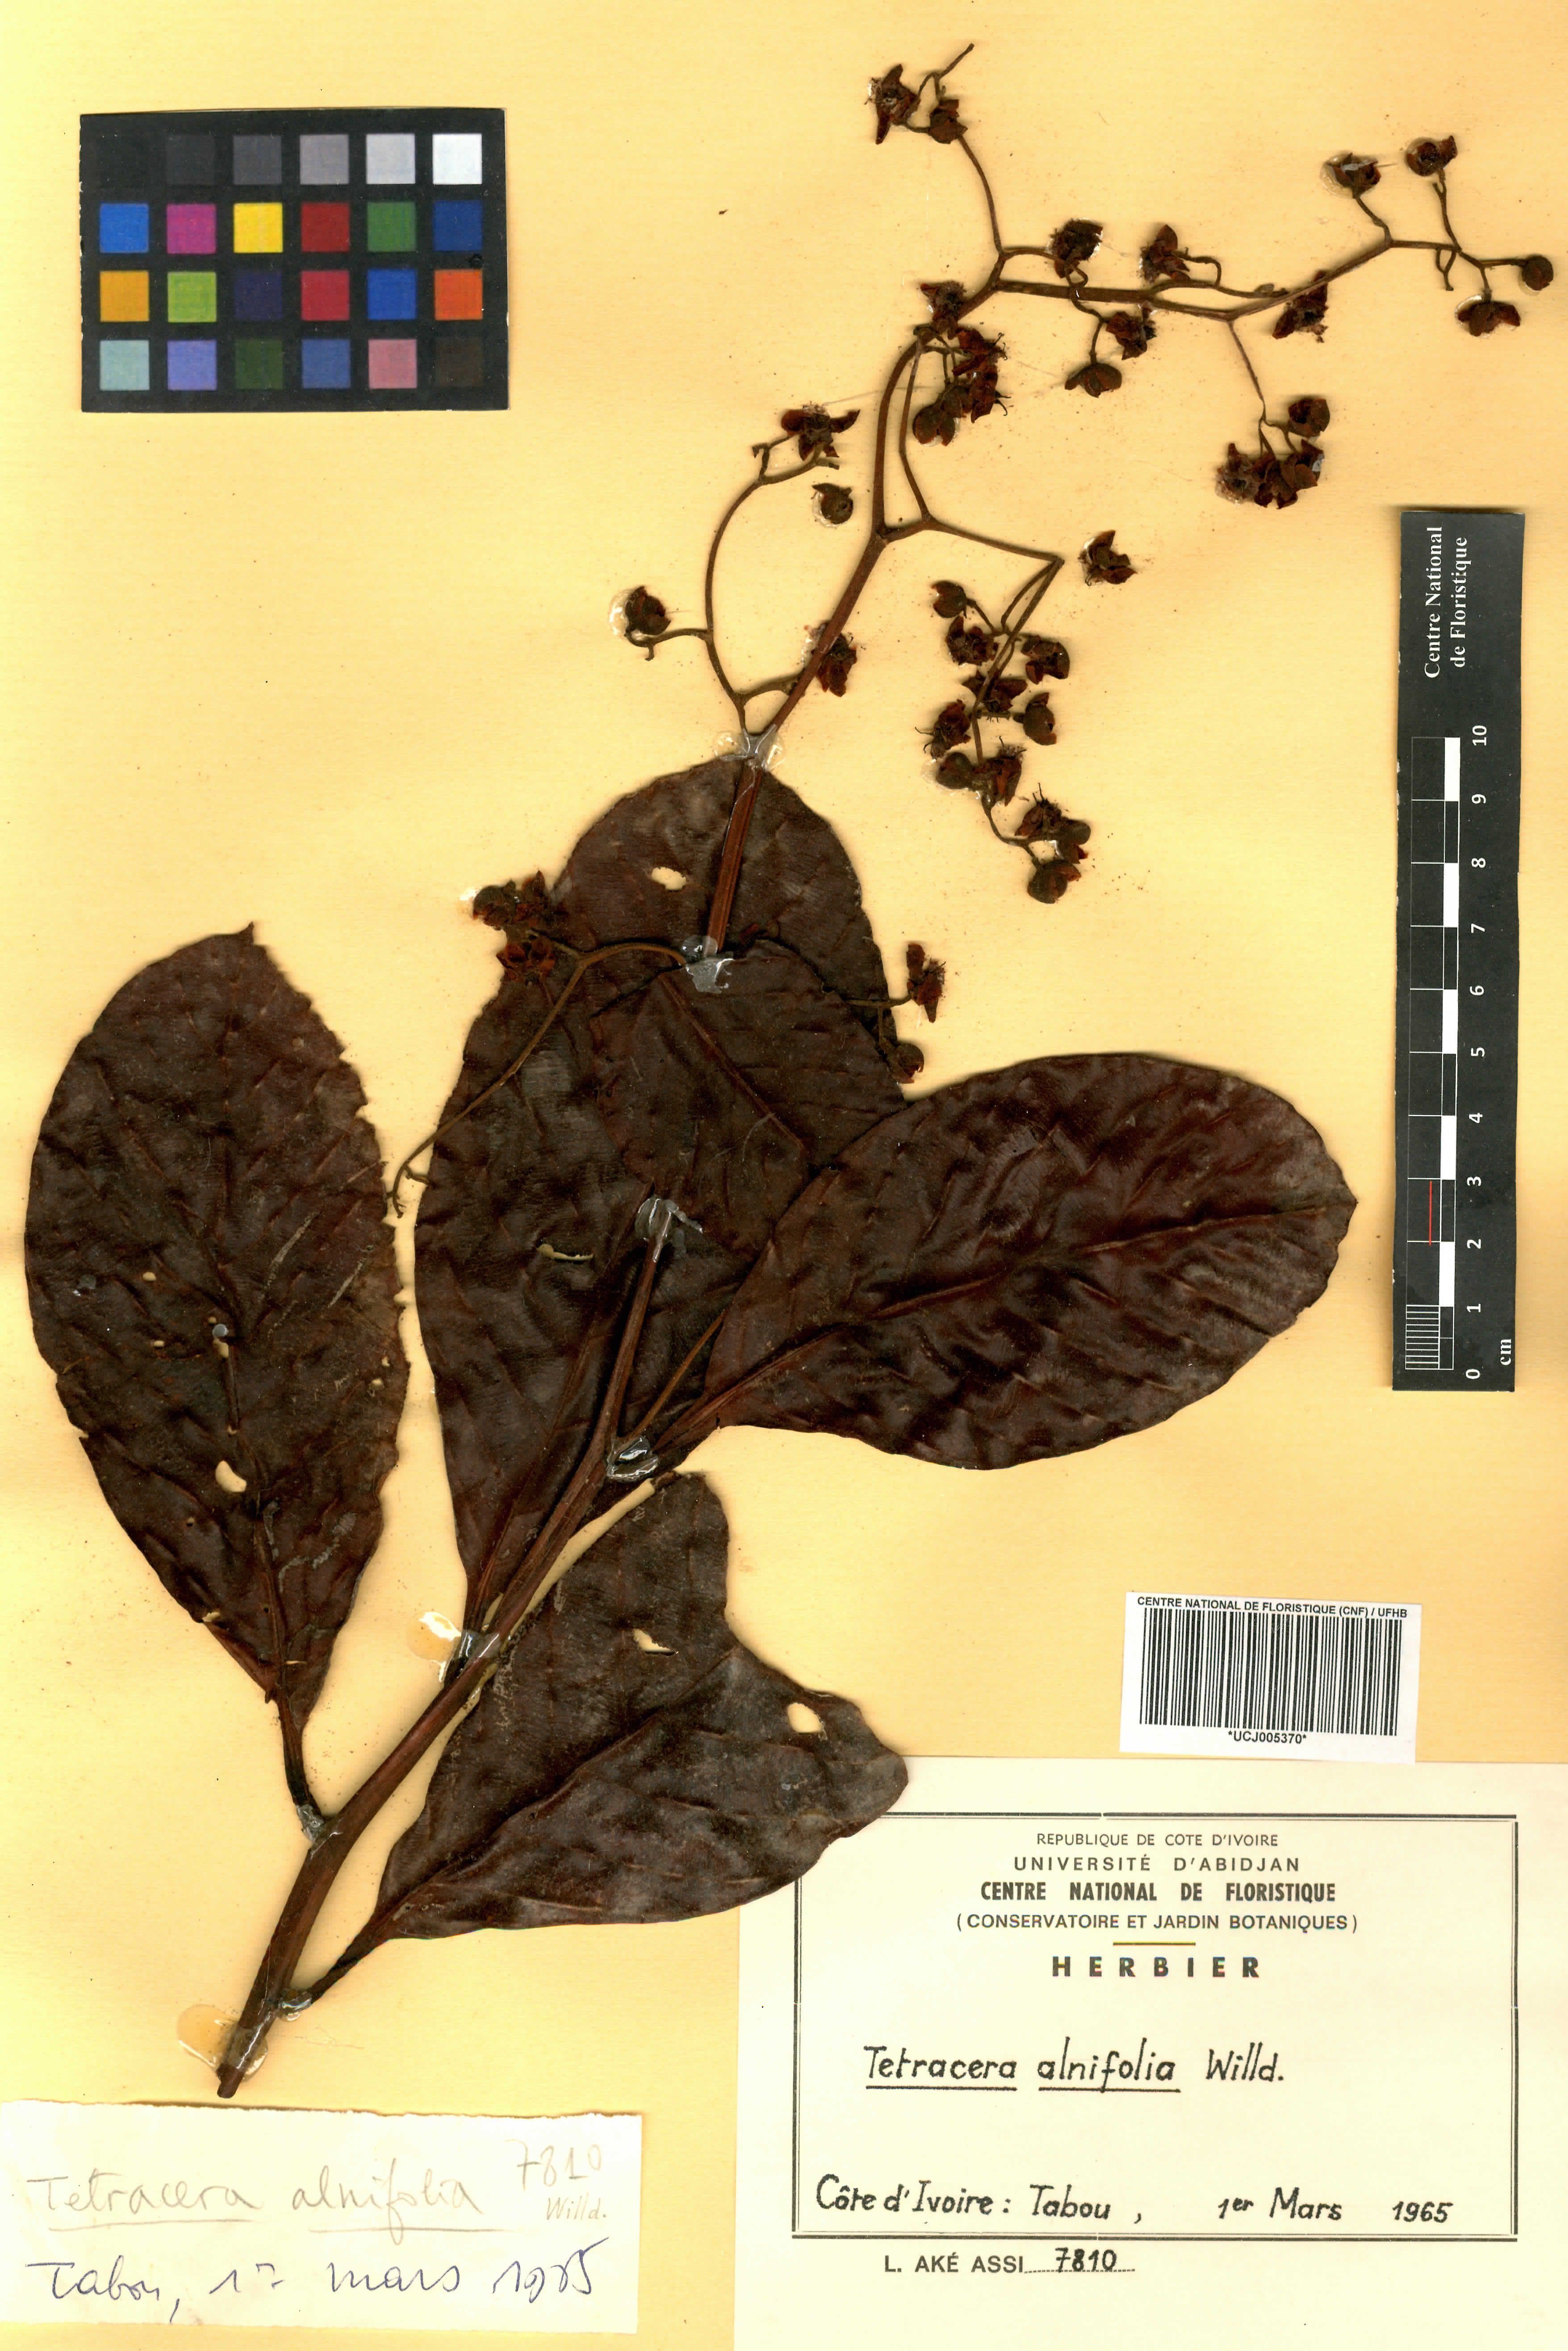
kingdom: Plantae
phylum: Tracheophyta
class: Magnoliopsida
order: Dilleniales
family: Dilleniaceae
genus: Tetracera
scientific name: Tetracera alnifolia
